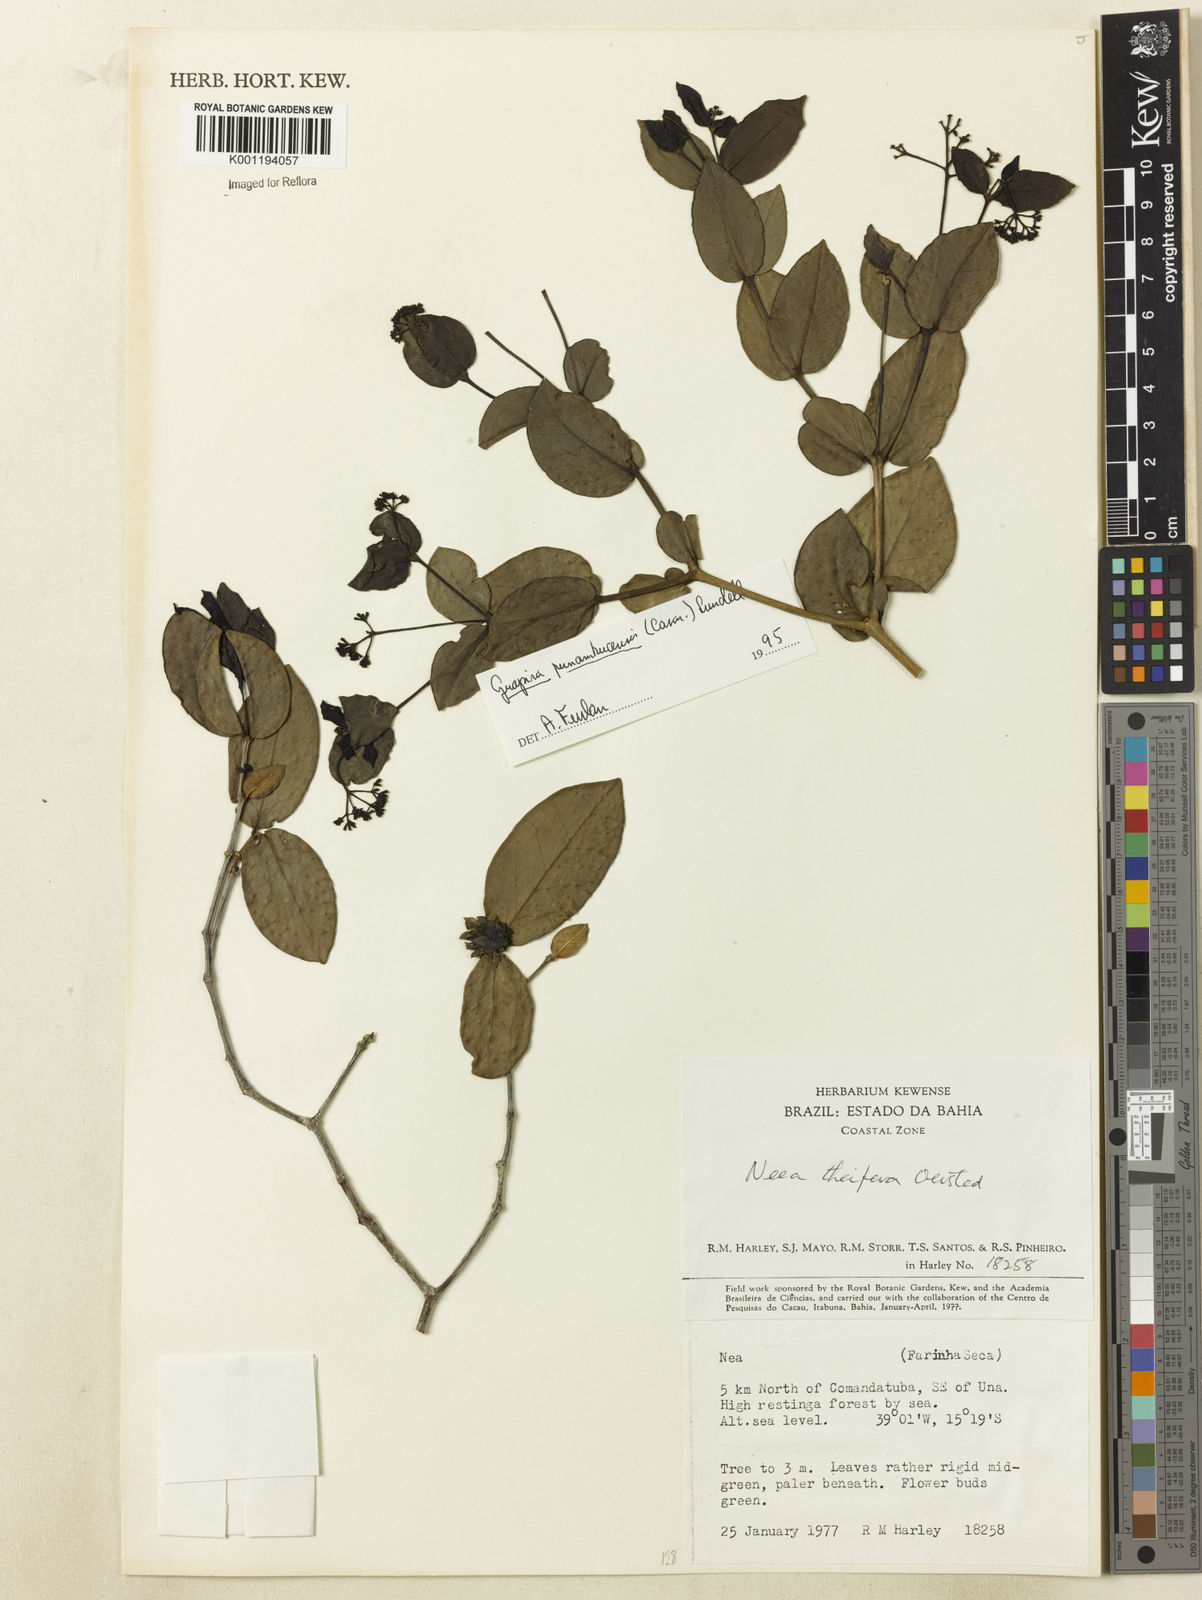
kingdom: Plantae
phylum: Tracheophyta
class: Magnoliopsida
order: Caryophyllales
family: Nyctaginaceae
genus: Guapira
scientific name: Guapira pernambucensis
